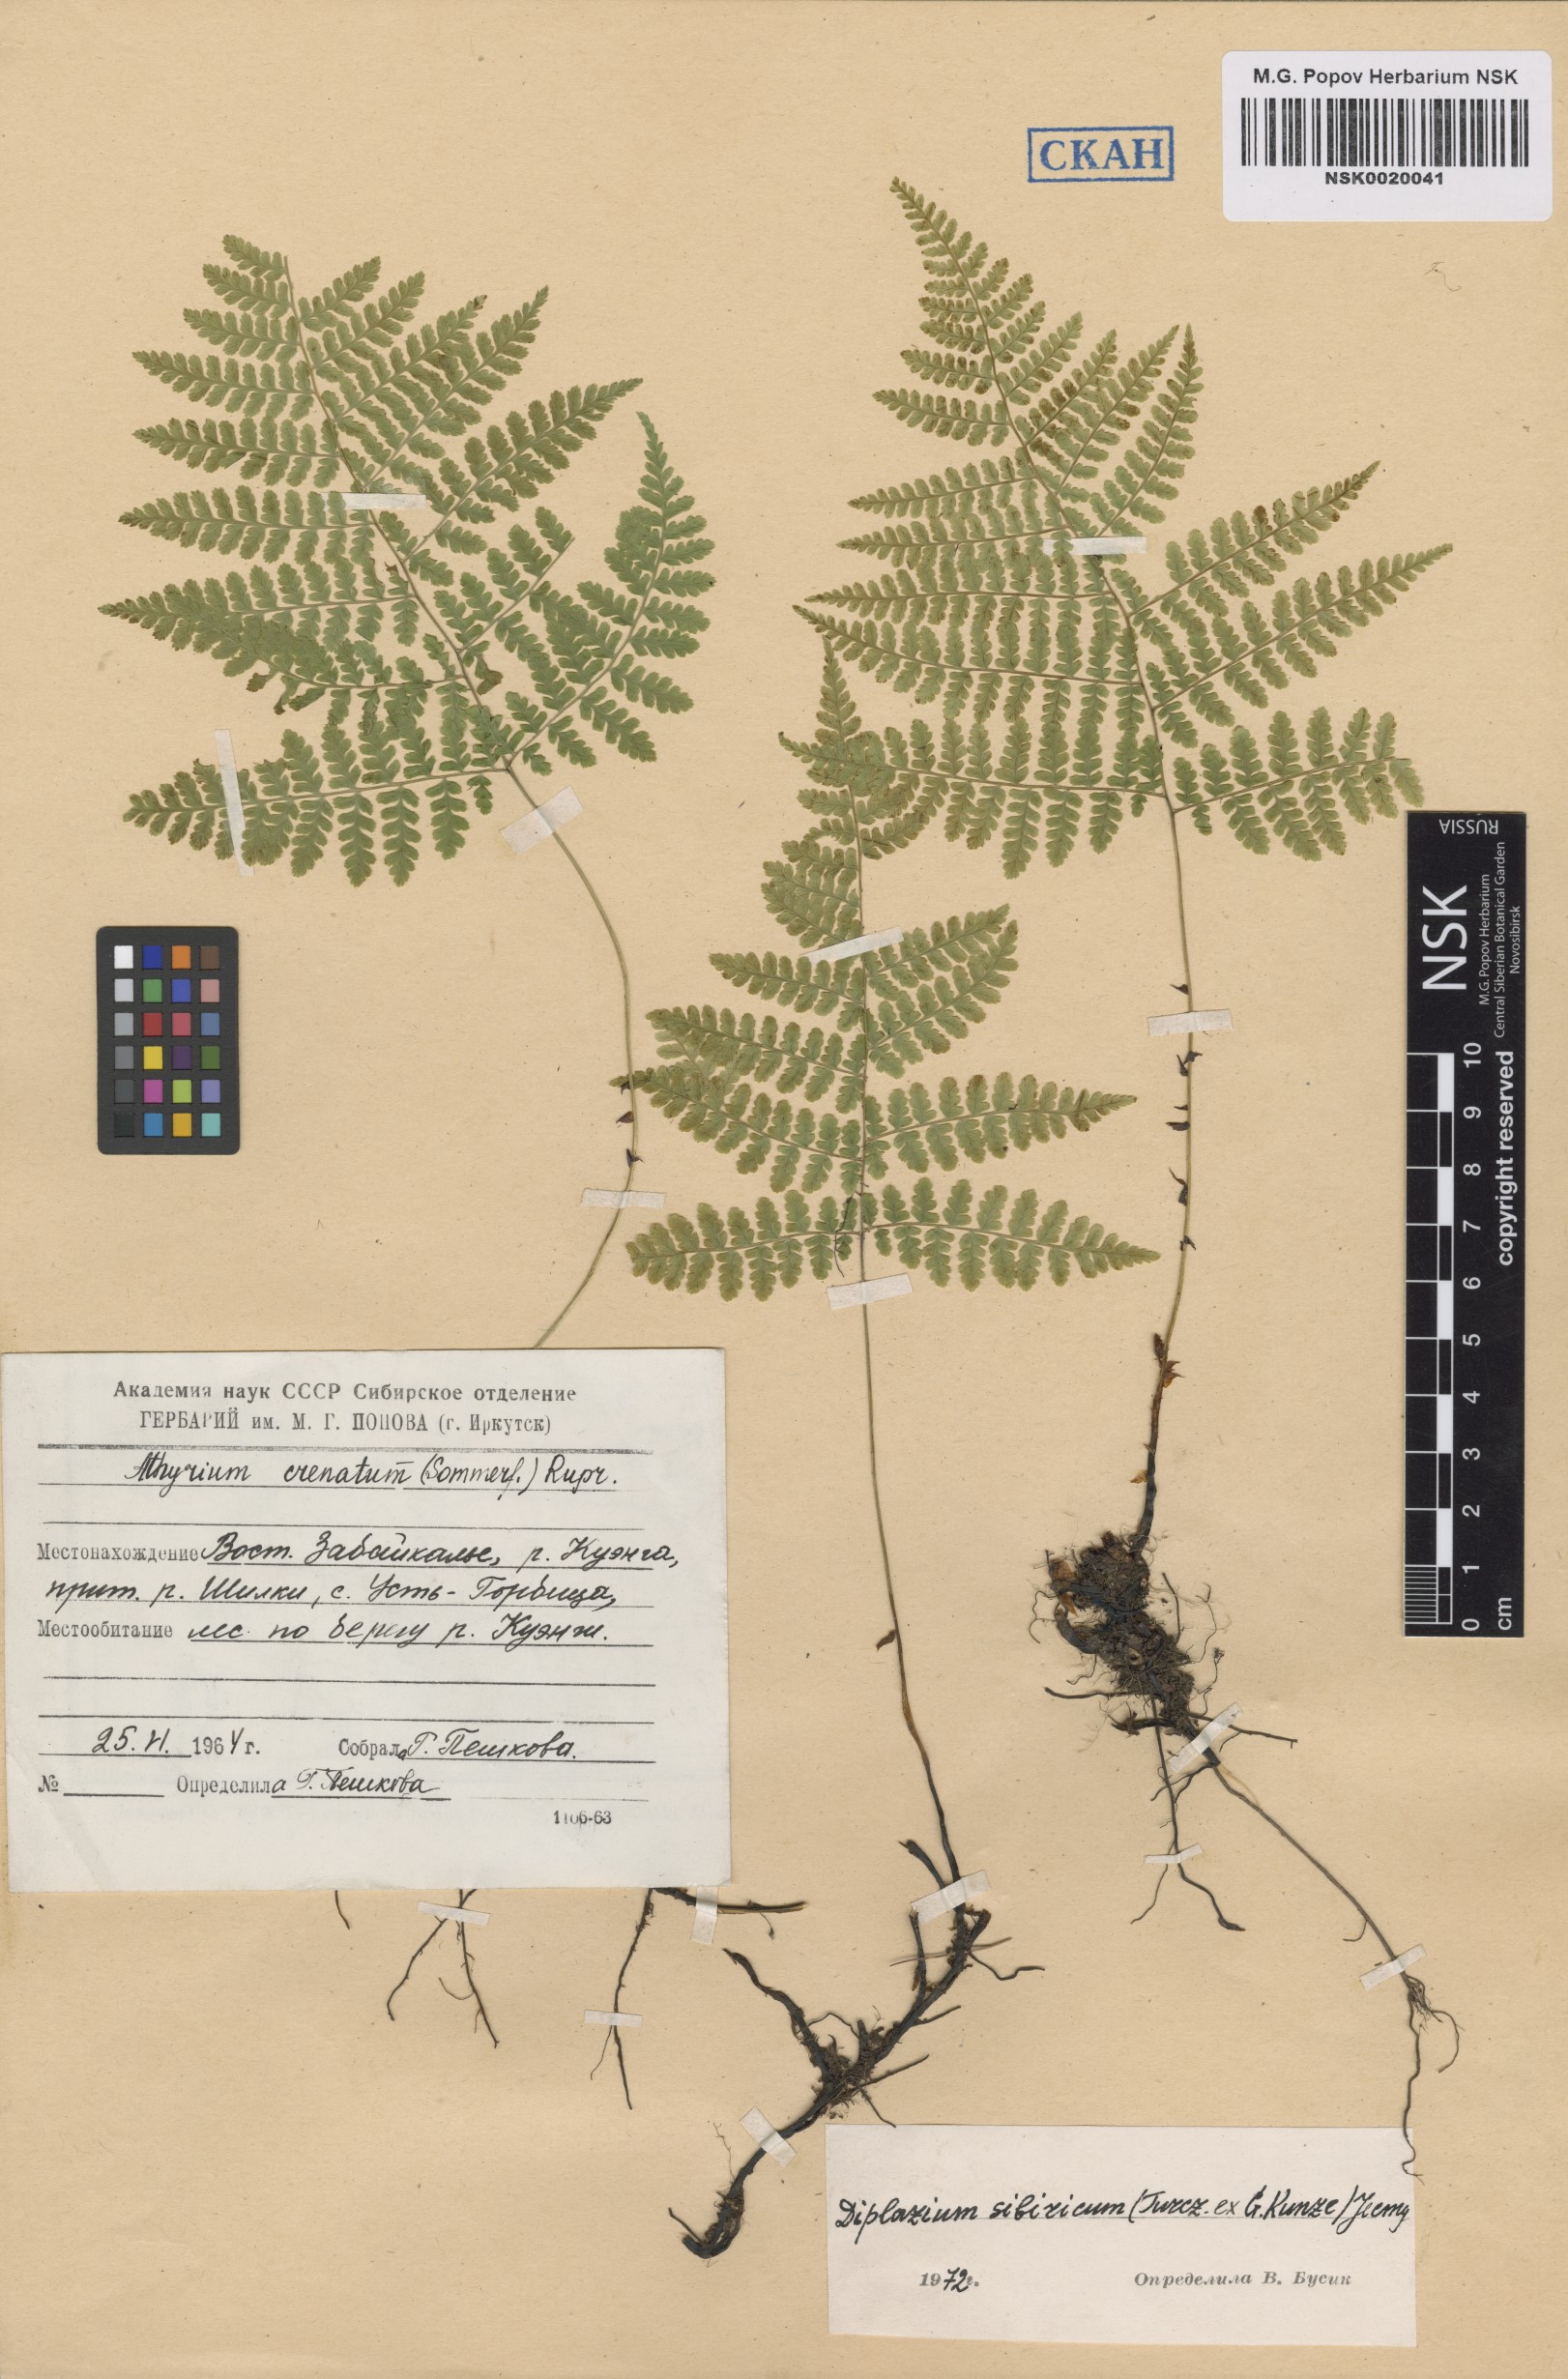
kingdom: Plantae
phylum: Tracheophyta
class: Polypodiopsida
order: Polypodiales
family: Athyriaceae
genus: Diplazium
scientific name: Diplazium sibiricum
